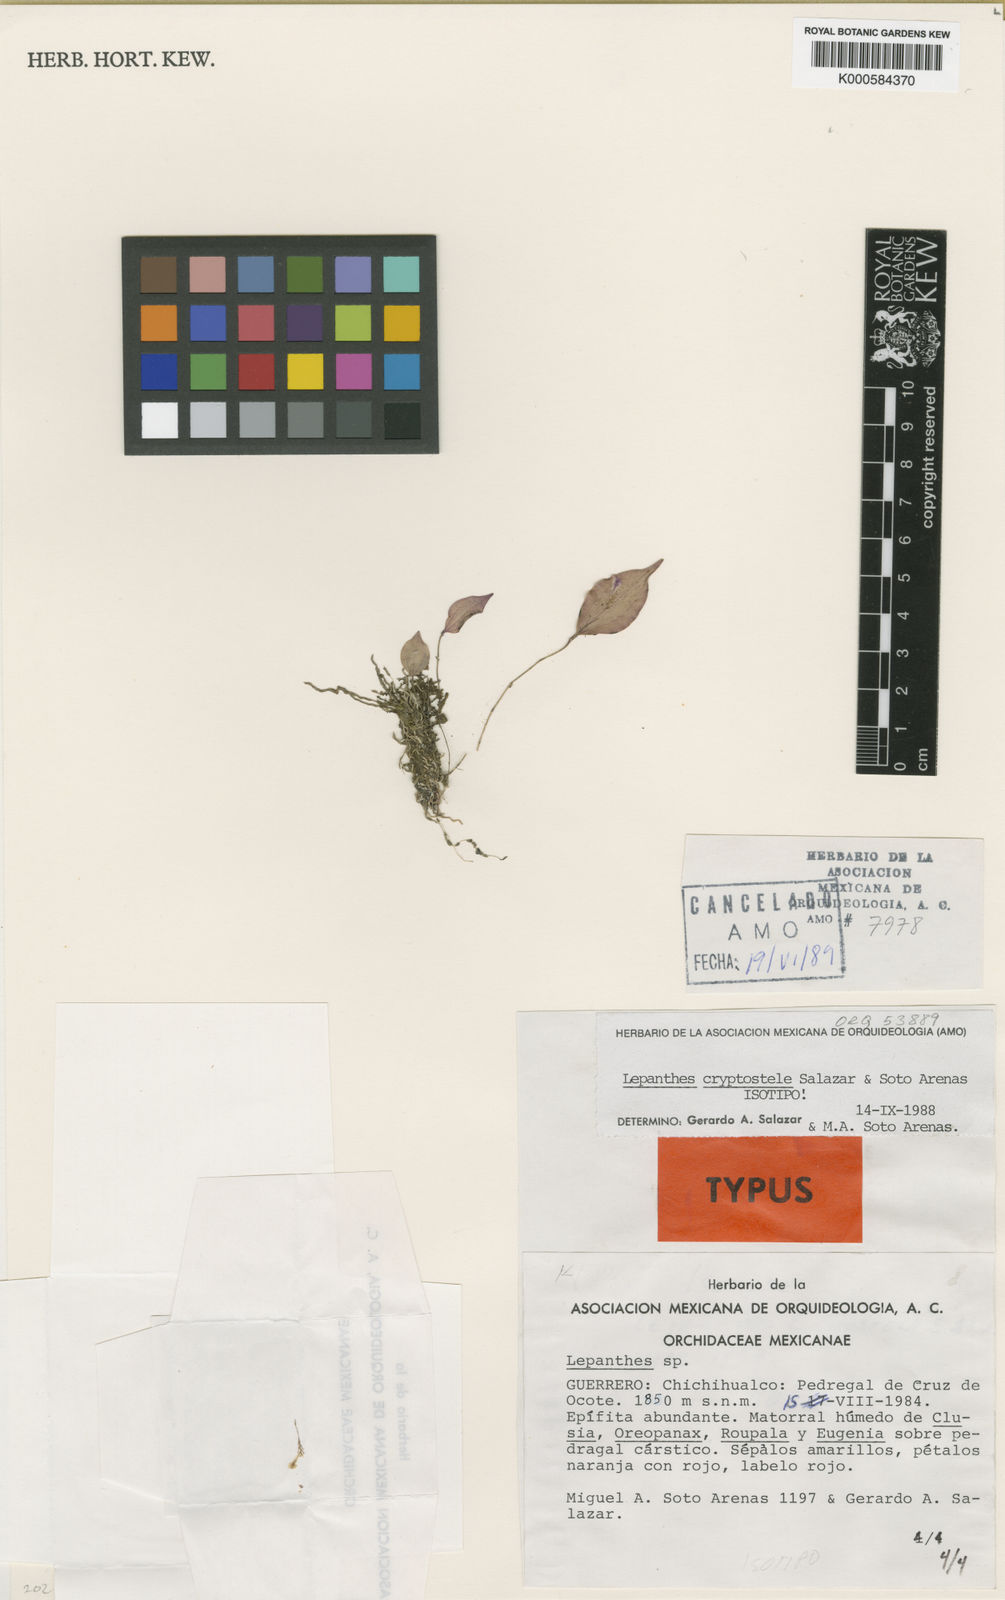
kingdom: Plantae
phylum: Tracheophyta
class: Liliopsida
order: Asparagales
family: Orchidaceae
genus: Lepanthes
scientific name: Lepanthes cryptostele
